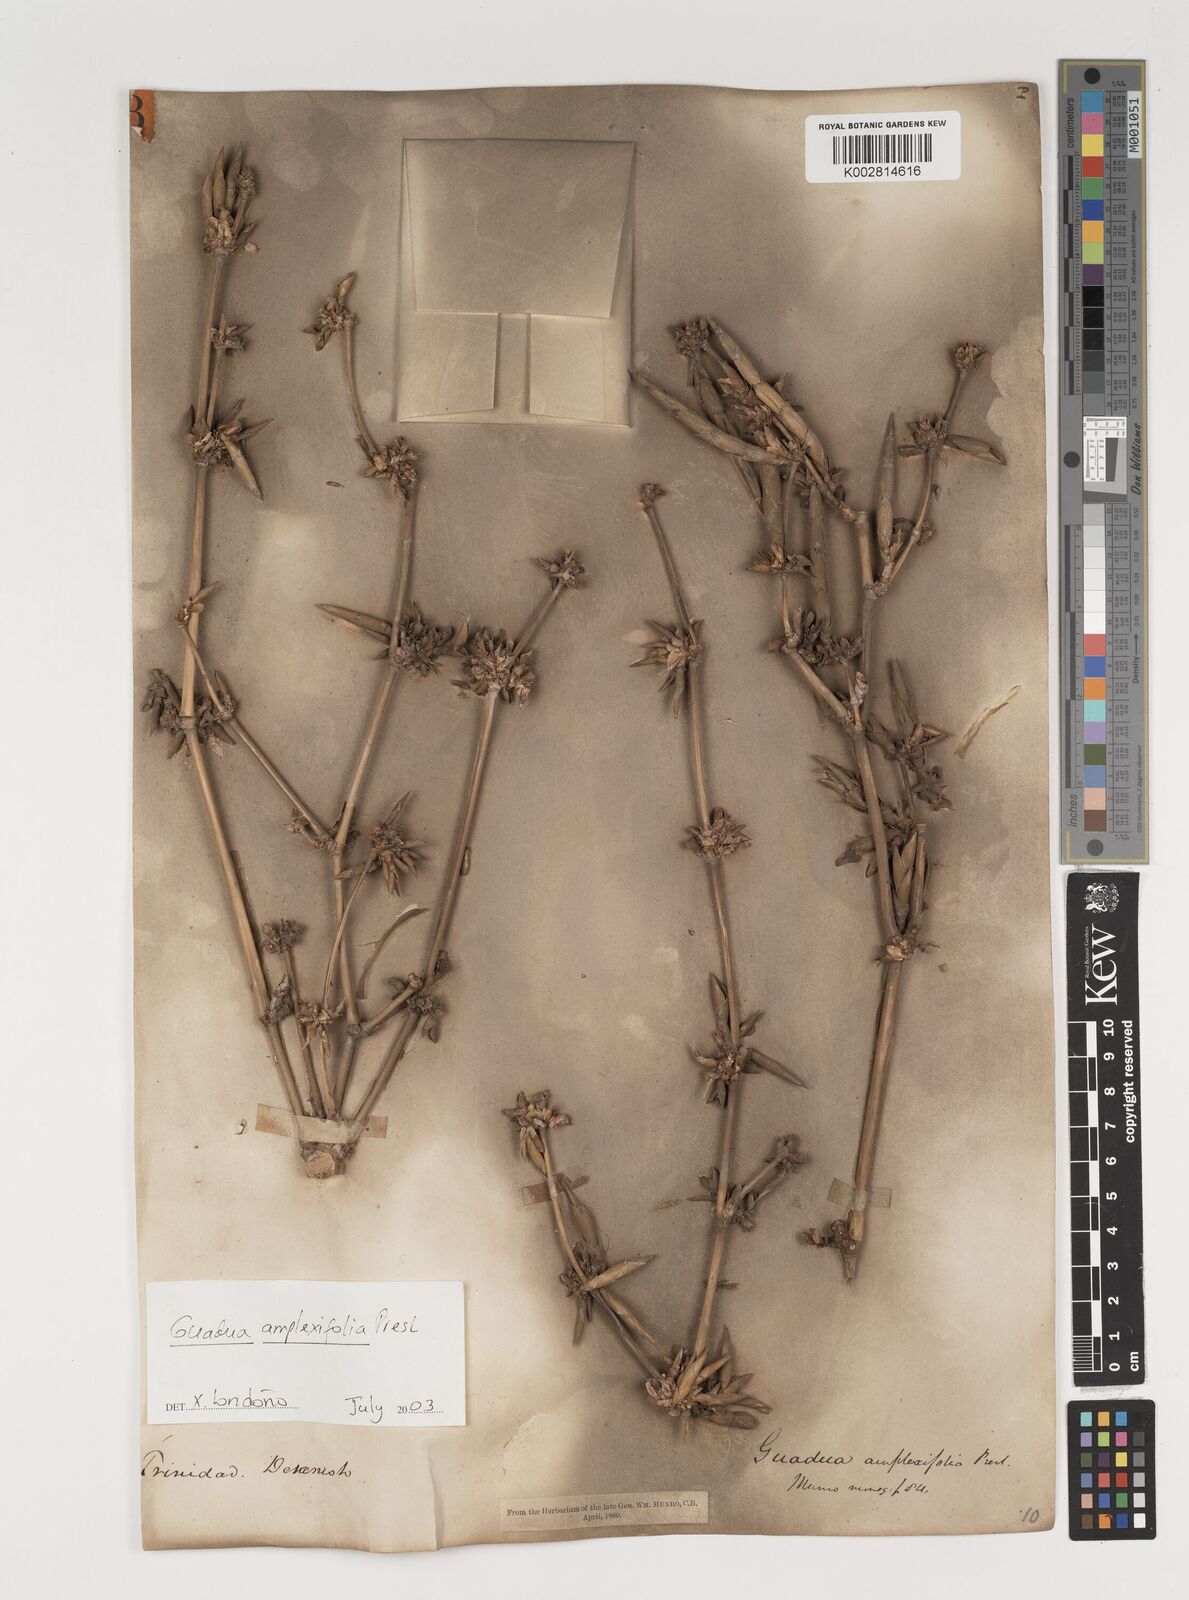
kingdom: Plantae
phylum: Tracheophyta
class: Liliopsida
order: Poales
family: Poaceae
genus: Guadua
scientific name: Guadua amplexifolia
